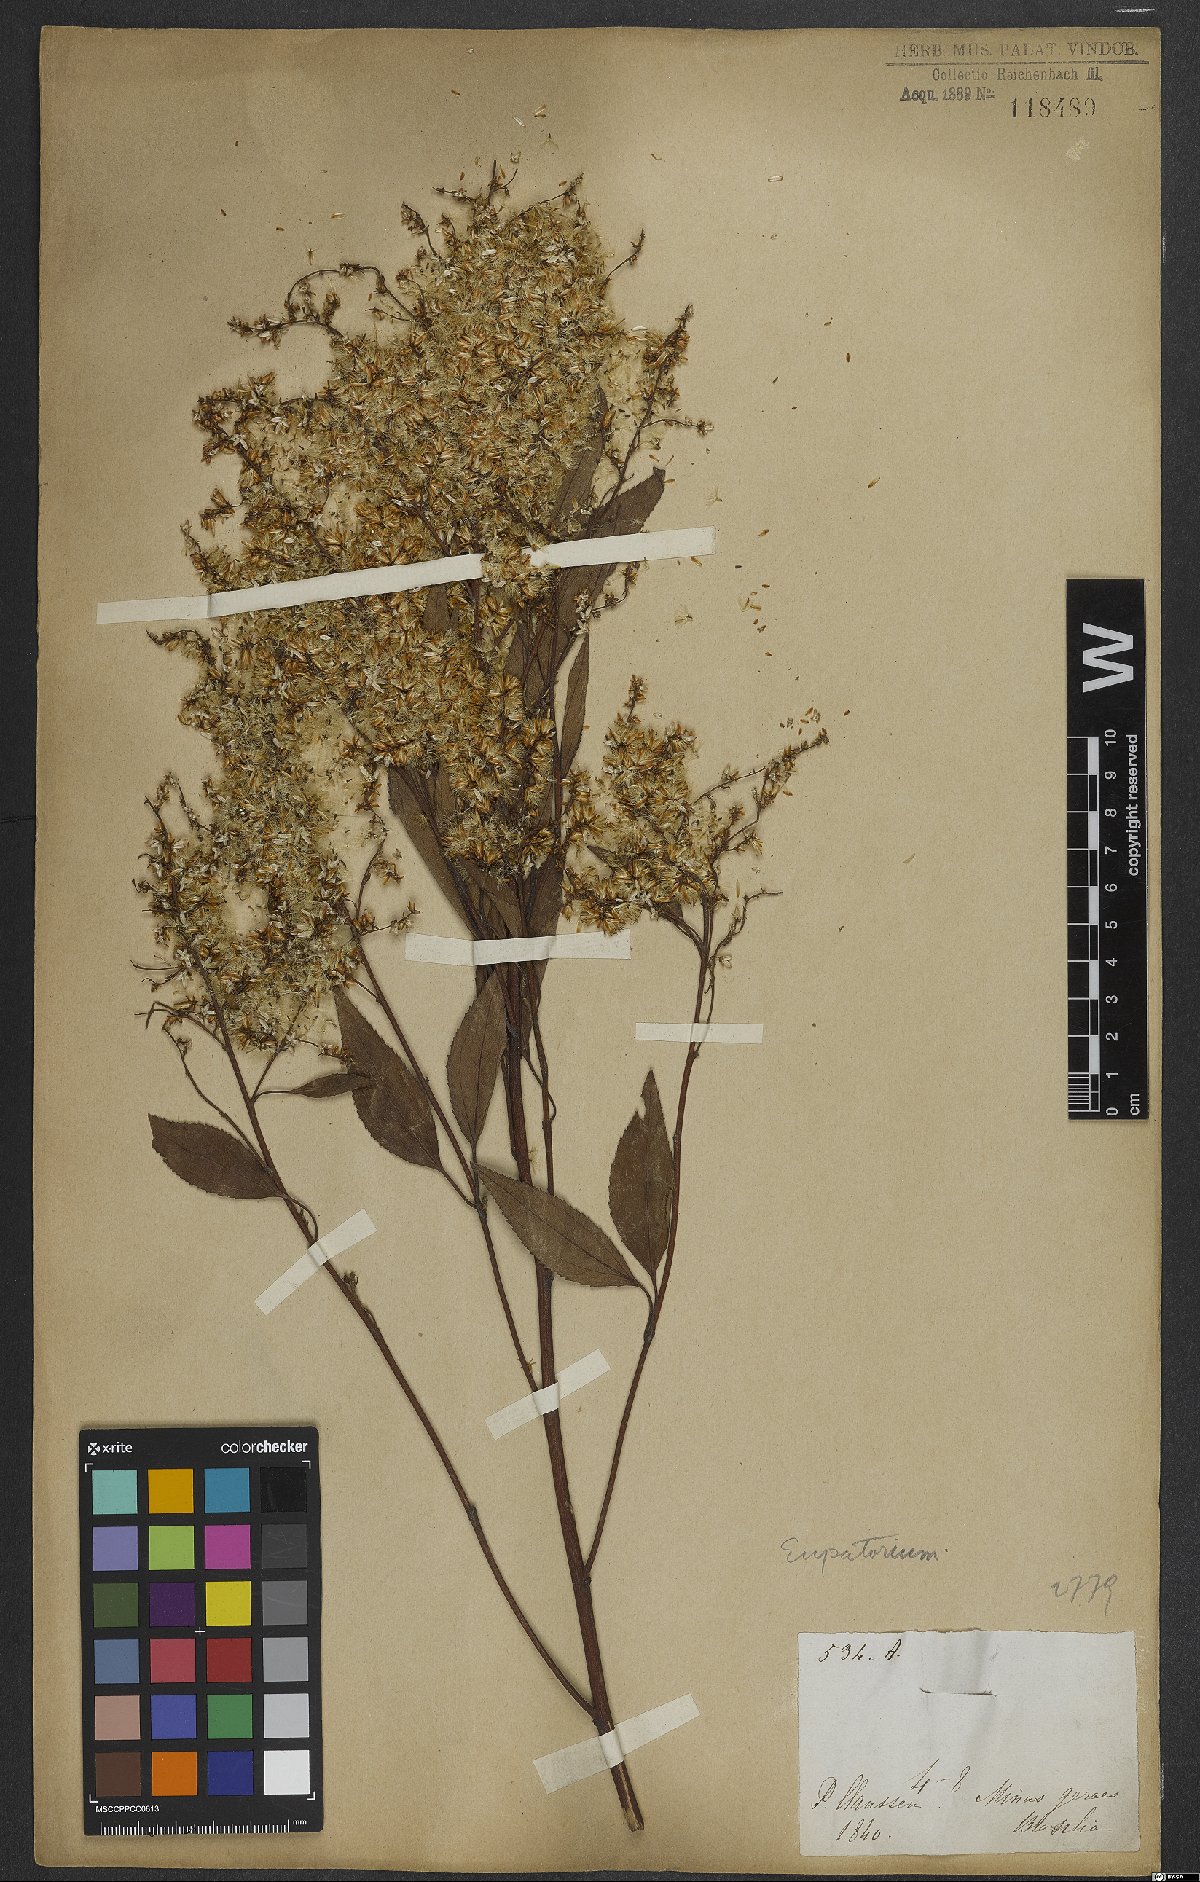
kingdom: Plantae
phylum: Tracheophyta
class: Magnoliopsida
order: Asterales
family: Asteraceae
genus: Eupatorium
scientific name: Eupatorium
